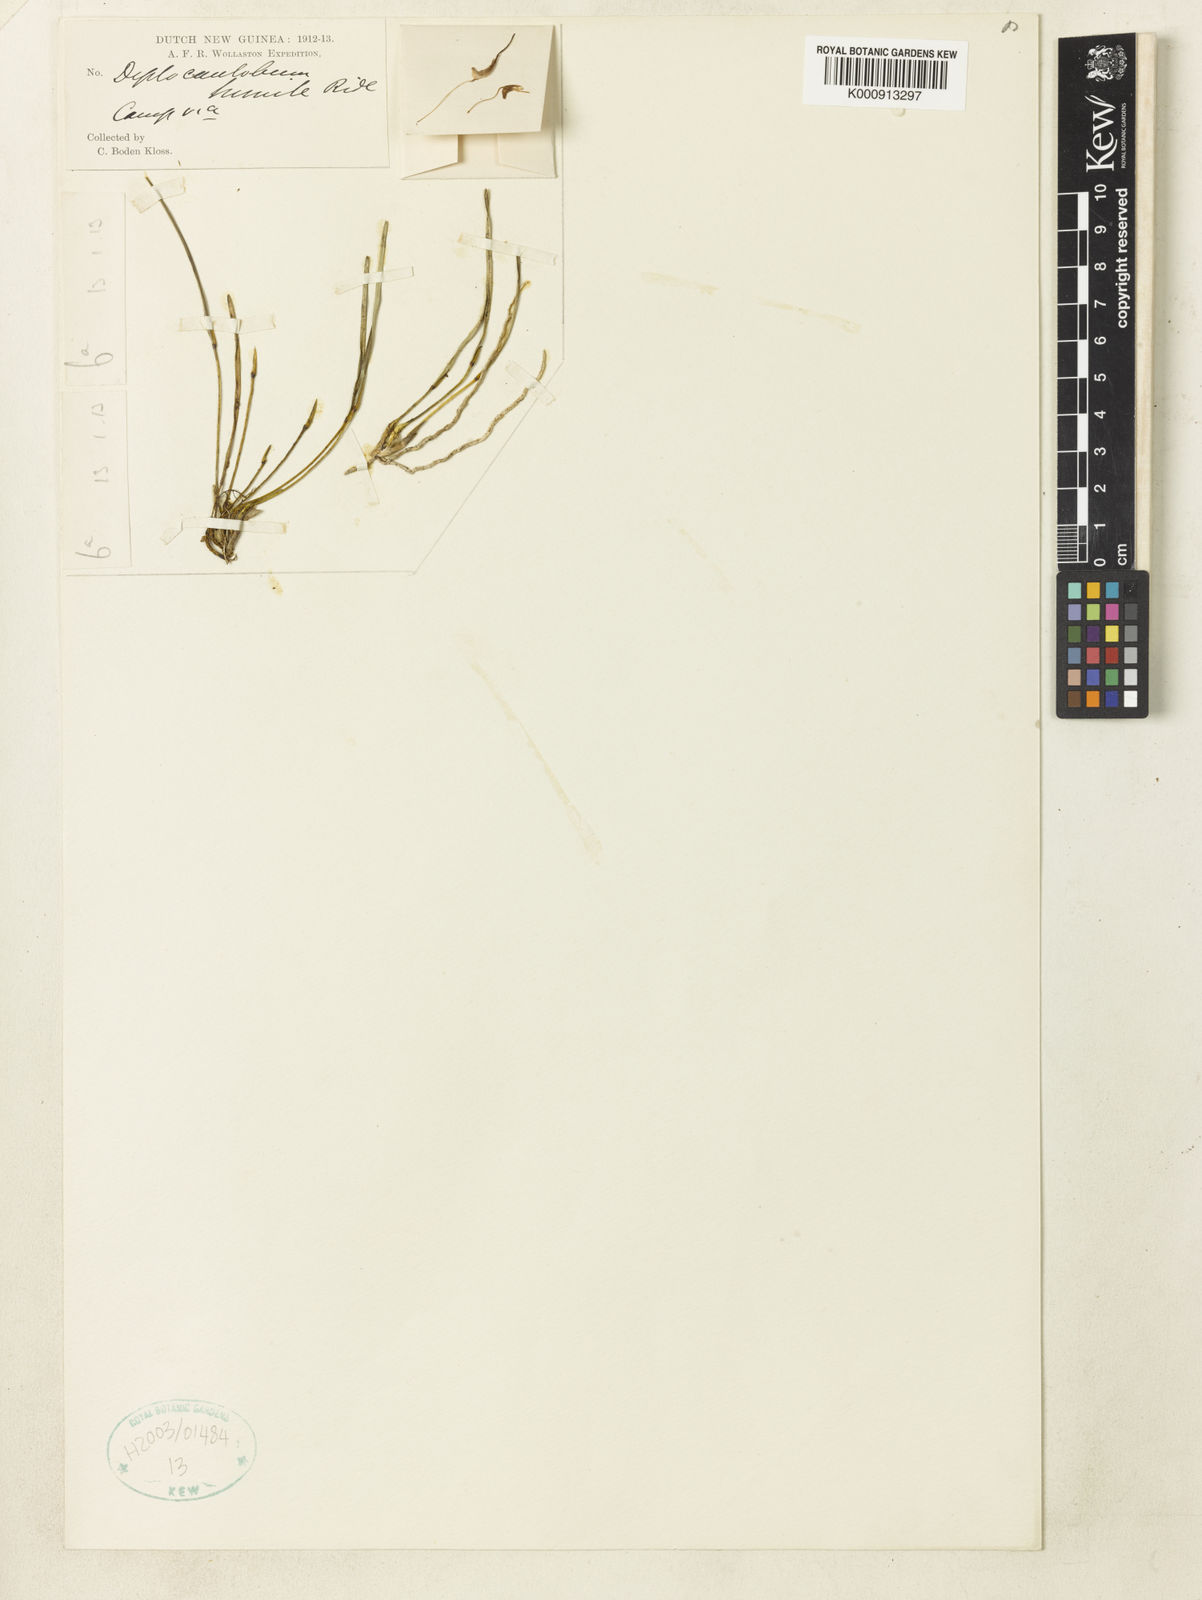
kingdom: Plantae
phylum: Tracheophyta
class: Liliopsida
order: Asparagales
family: Orchidaceae
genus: Dendrobium
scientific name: Dendrobium humilicolle
